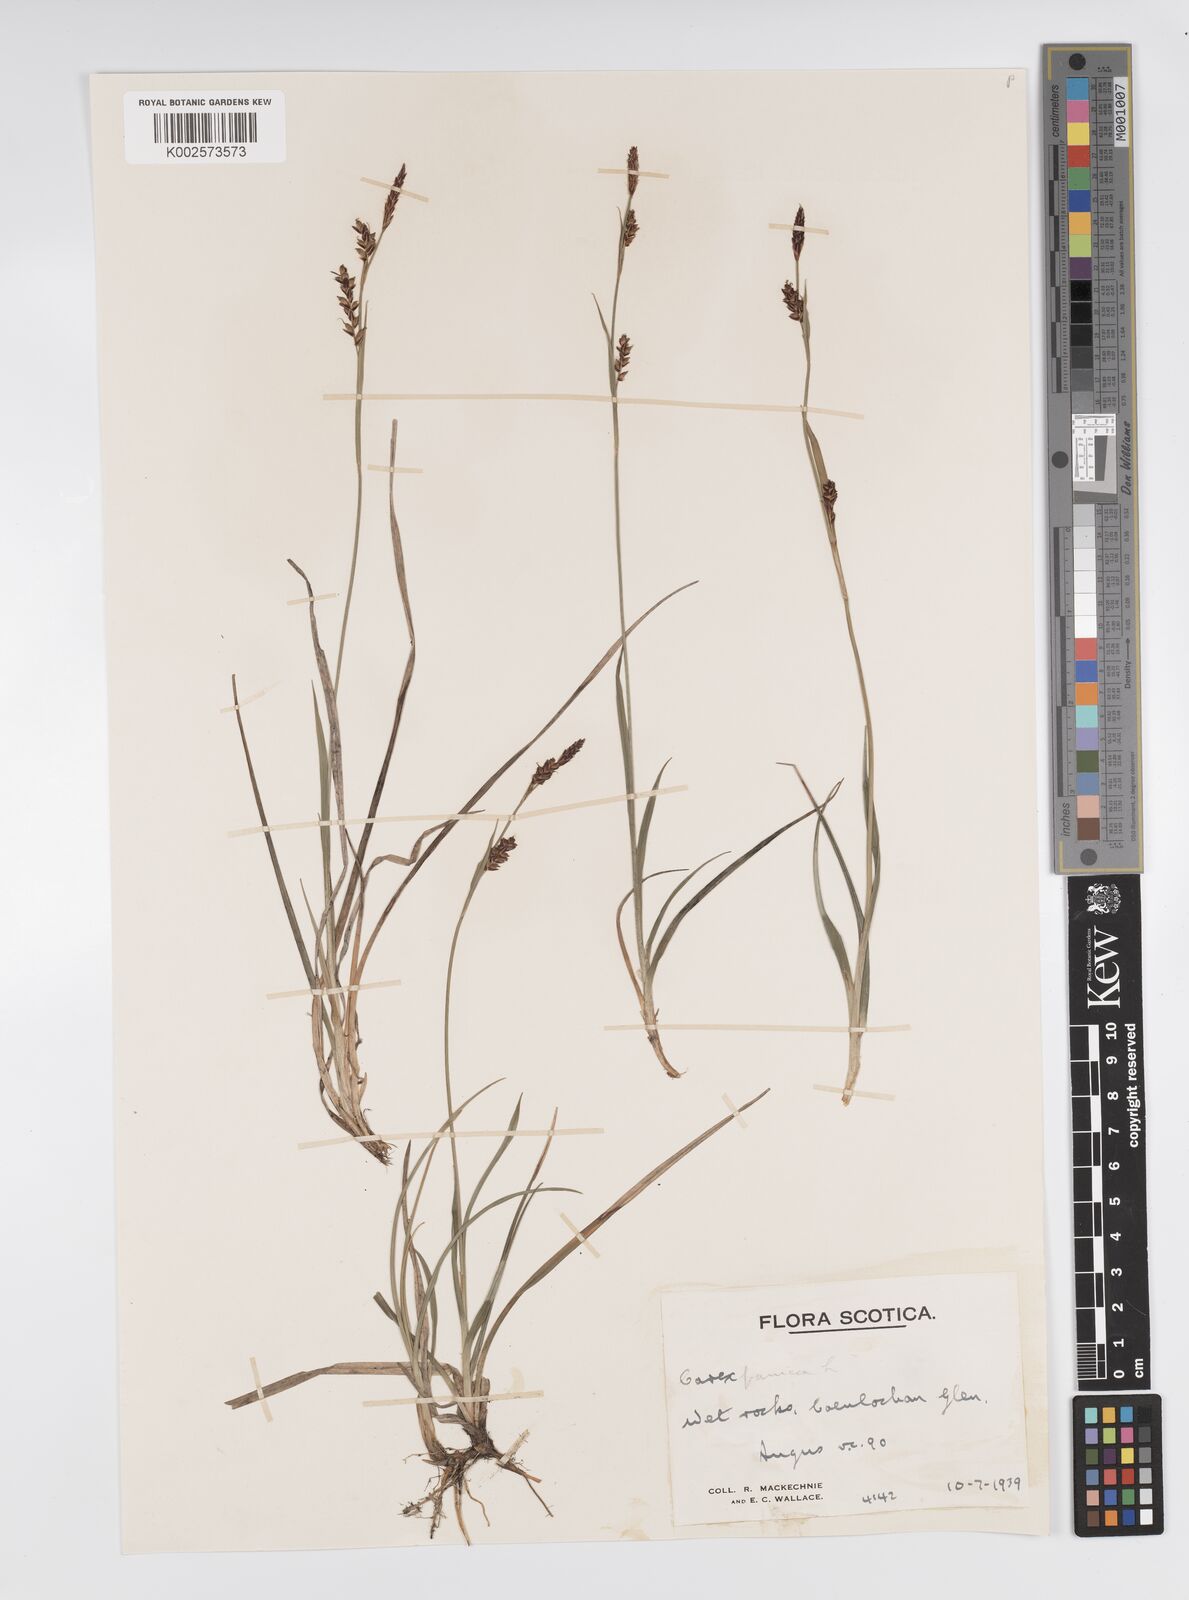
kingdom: Plantae
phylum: Tracheophyta
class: Liliopsida
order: Poales
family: Cyperaceae
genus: Carex
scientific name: Carex panicea
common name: Carnation sedge
